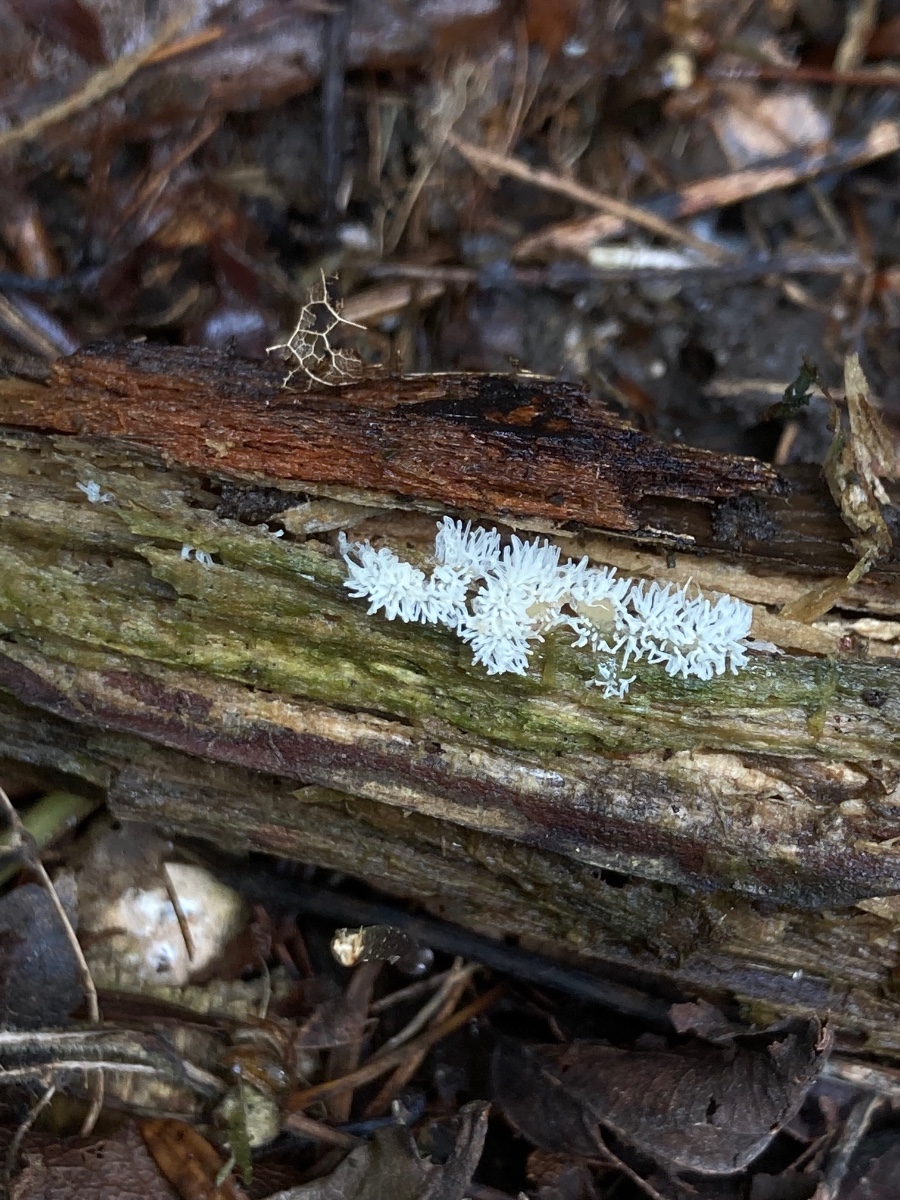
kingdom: Protozoa
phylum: Mycetozoa
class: Protosteliomycetes
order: Ceratiomyxales
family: Ceratiomyxaceae
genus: Ceratiomyxa
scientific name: Ceratiomyxa fruticulosa
